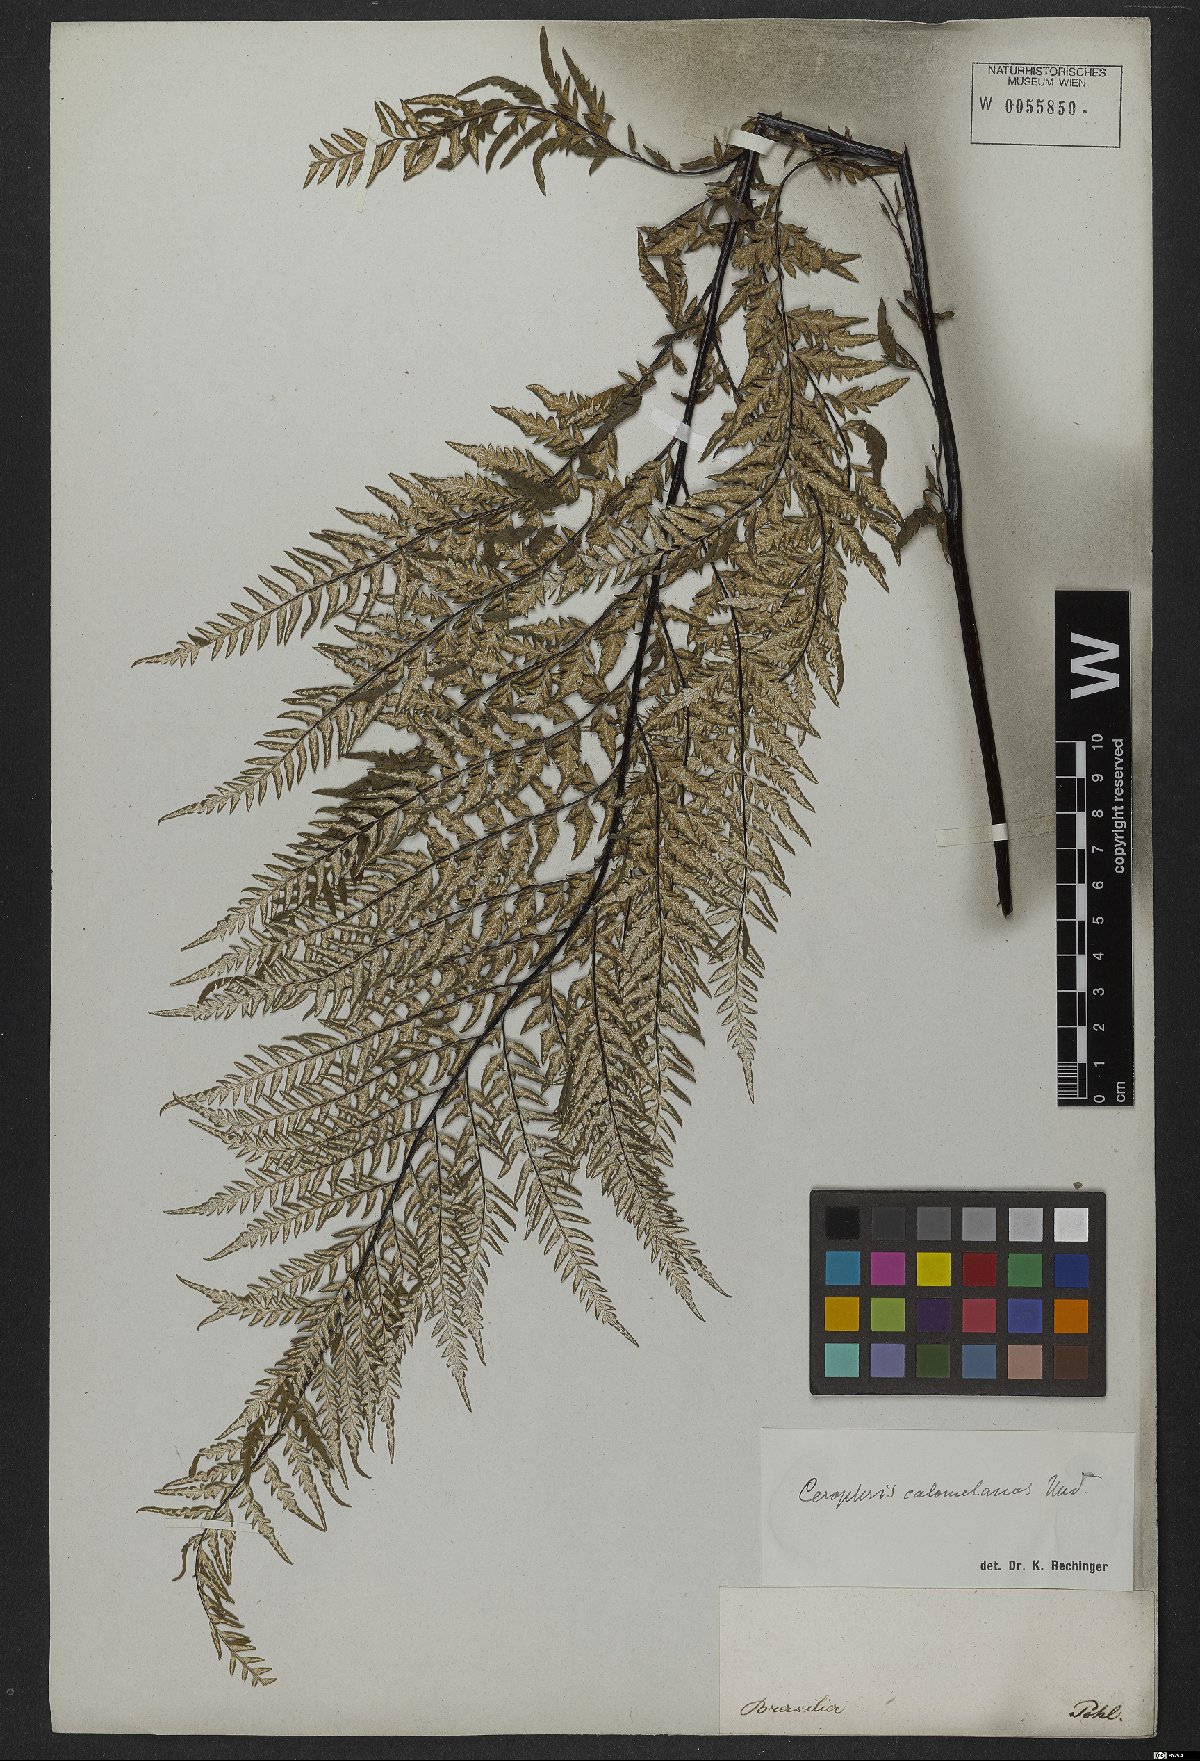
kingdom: Plantae
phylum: Tracheophyta
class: Polypodiopsida
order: Polypodiales
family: Pteridaceae
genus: Pityrogramma
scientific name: Pityrogramma calomelanos
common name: Dixie silverback fern
